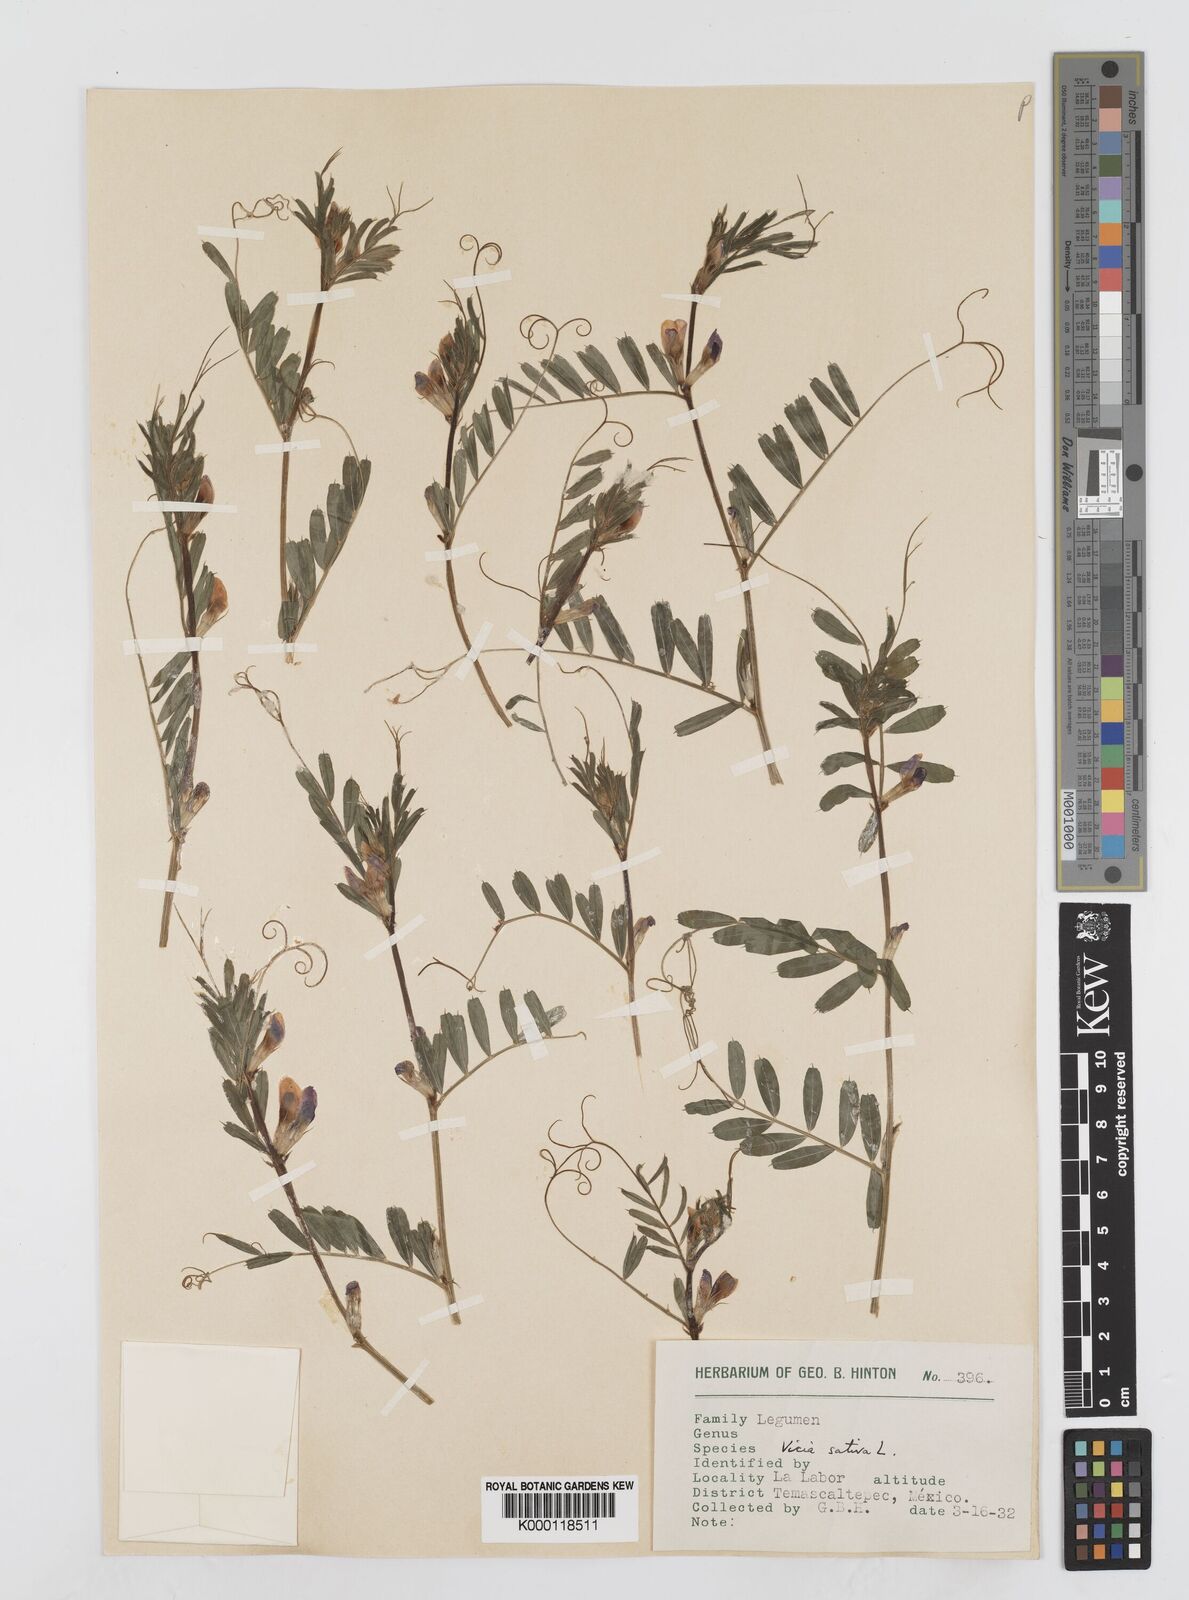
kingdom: Plantae
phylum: Tracheophyta
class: Magnoliopsida
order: Fabales
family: Fabaceae
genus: Vicia
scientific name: Vicia sativa
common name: Garden vetch
